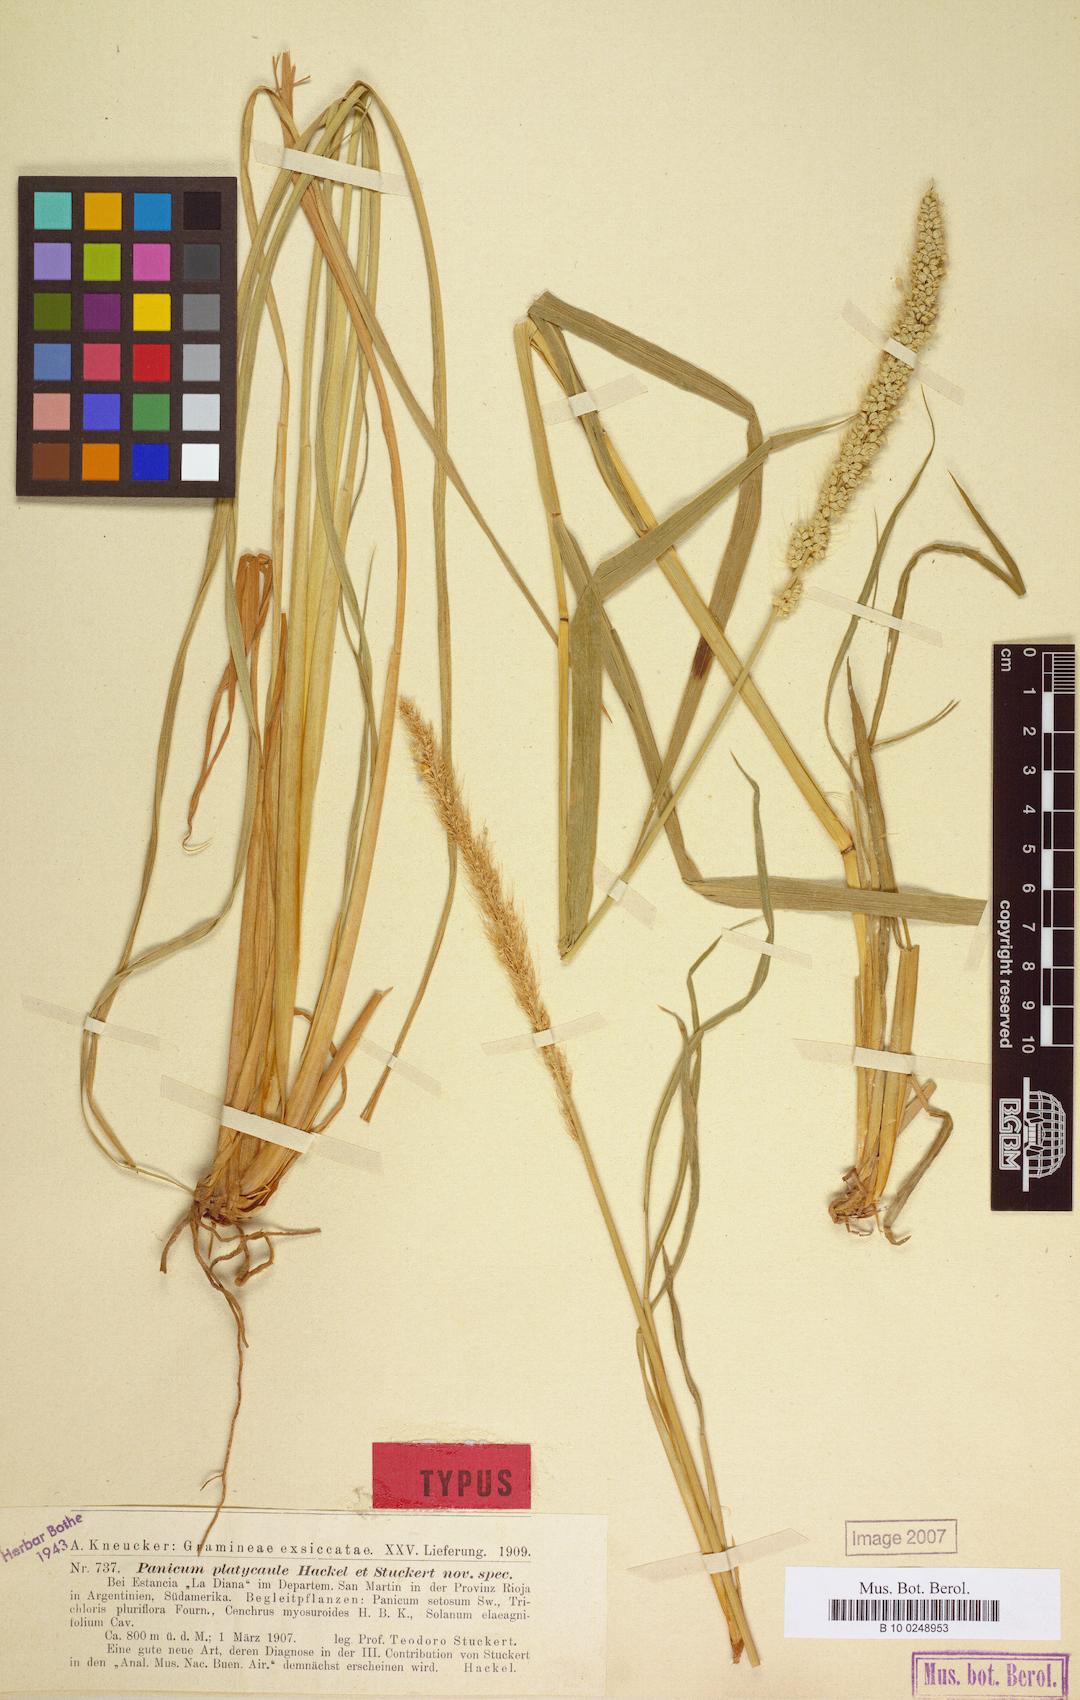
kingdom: Plantae
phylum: Tracheophyta
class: Liliopsida
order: Poales
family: Poaceae
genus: Setaria
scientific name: Setaria cordobensis
